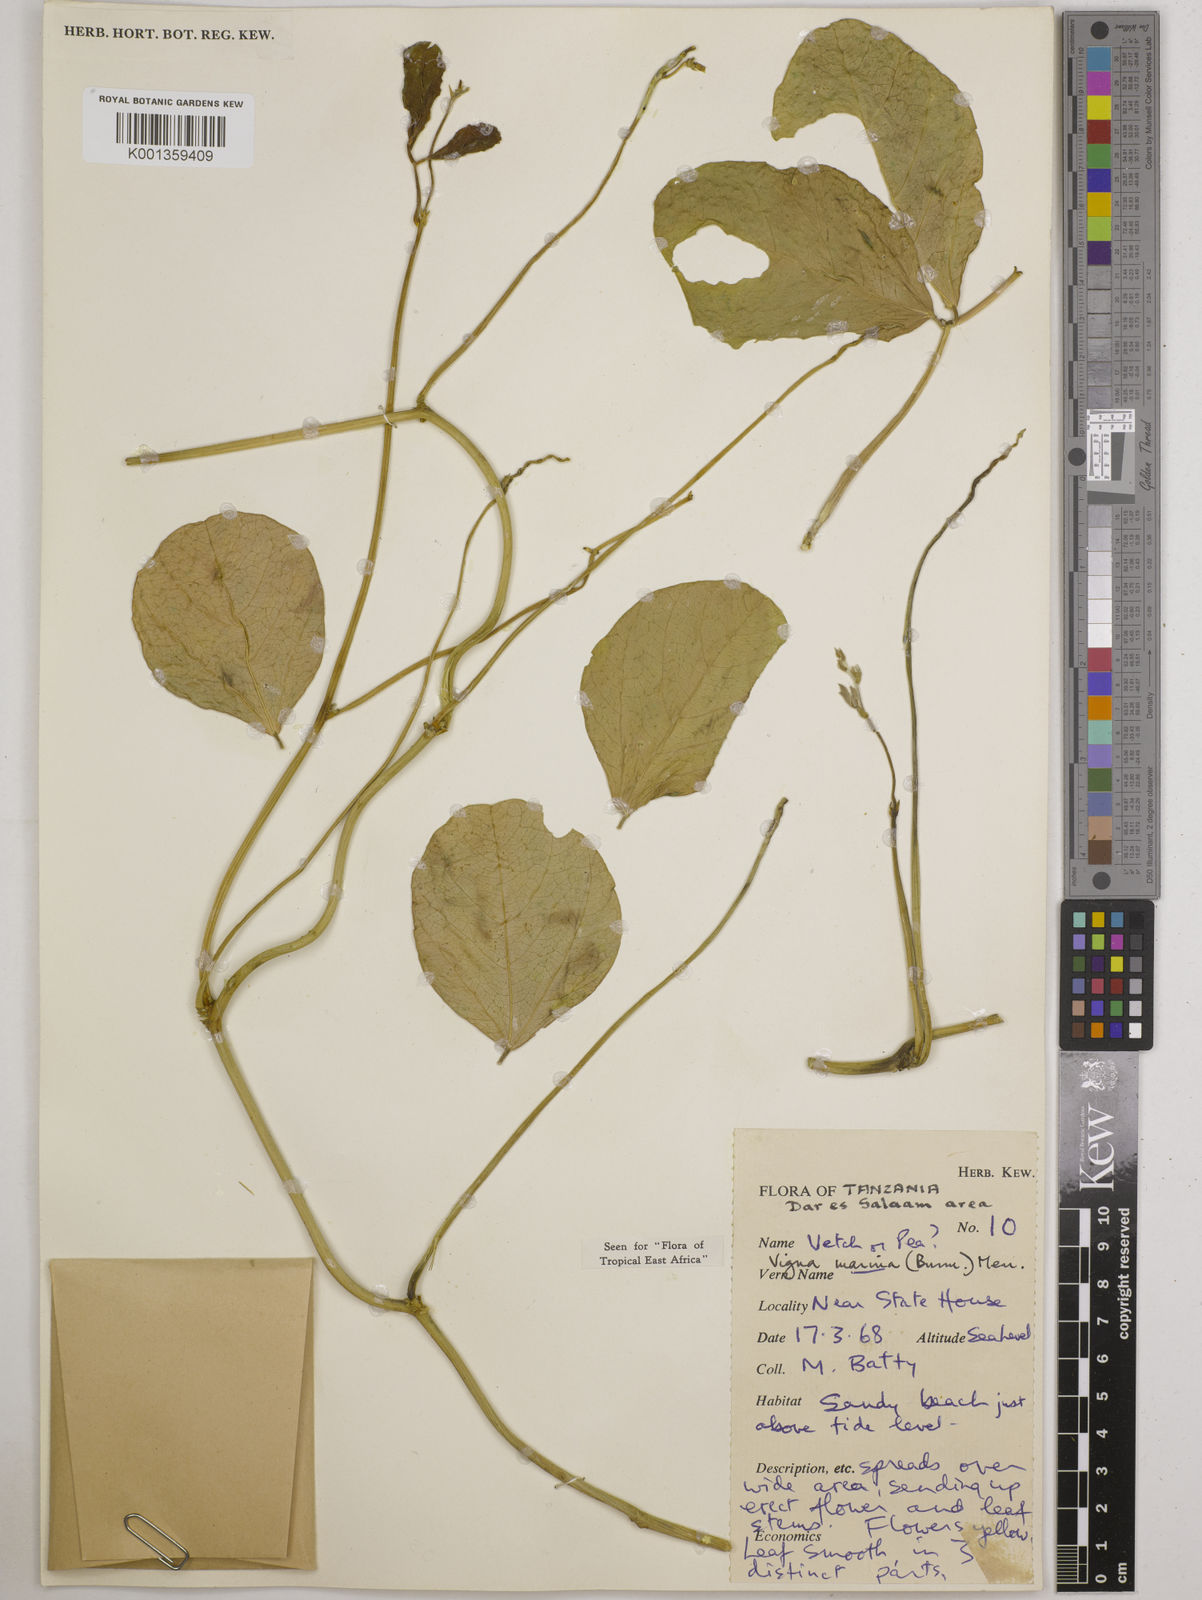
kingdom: Plantae
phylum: Tracheophyta
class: Magnoliopsida
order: Fabales
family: Fabaceae
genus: Vigna
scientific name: Vigna marina
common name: Dune-bean
